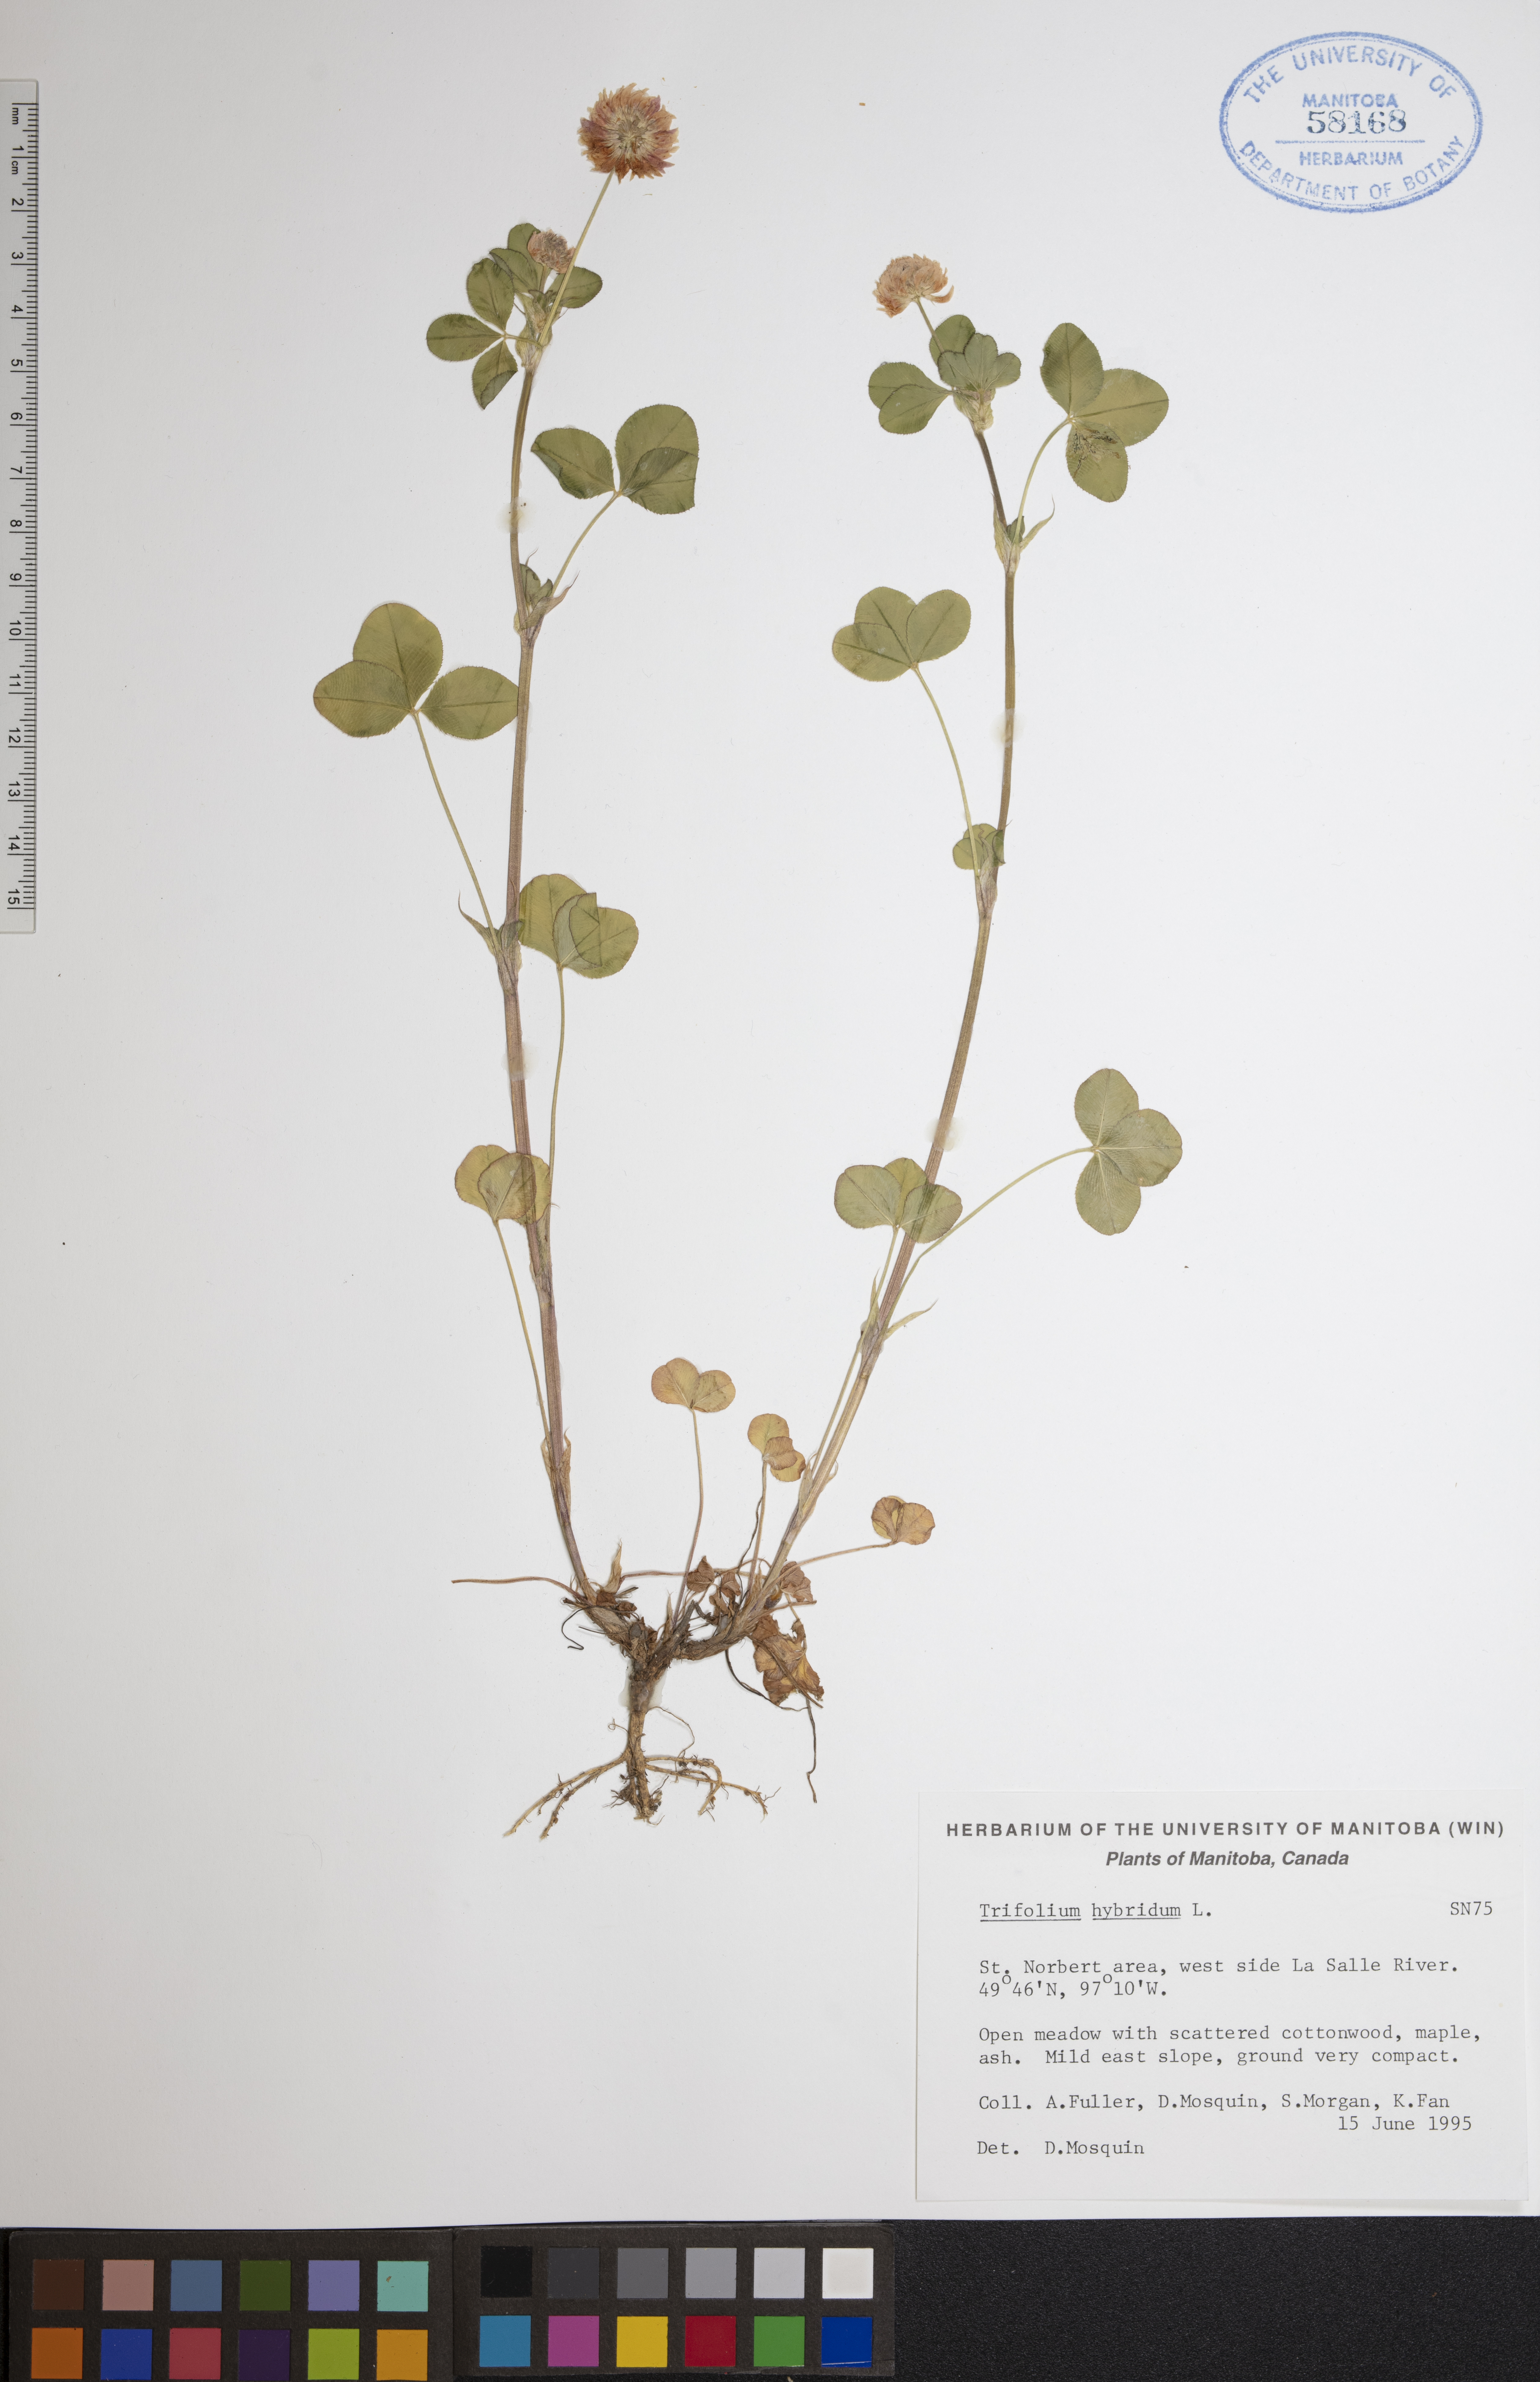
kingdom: Plantae
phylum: Tracheophyta
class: Magnoliopsida
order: Fabales
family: Fabaceae
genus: Trifolium
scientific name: Trifolium hybridum
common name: Alsike clover
